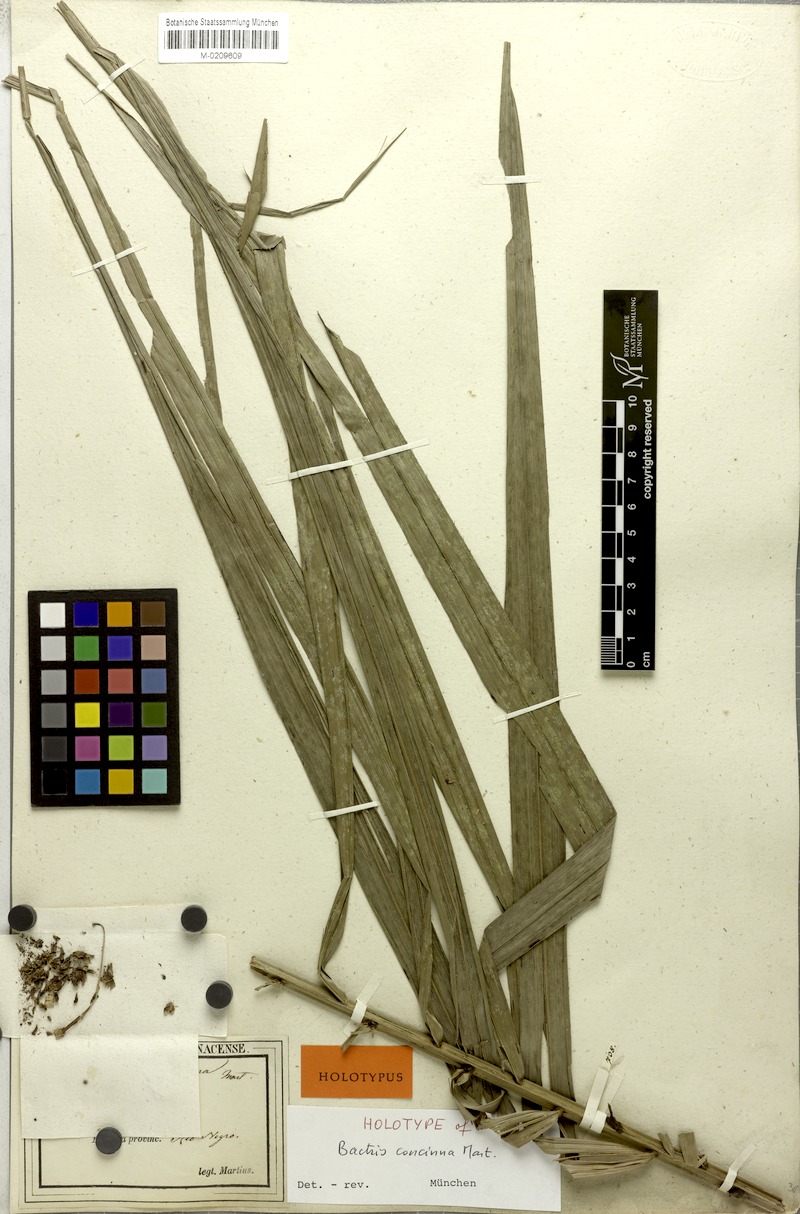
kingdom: Plantae
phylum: Tracheophyta
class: Liliopsida
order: Arecales
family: Arecaceae
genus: Bactris
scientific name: Bactris concinna
